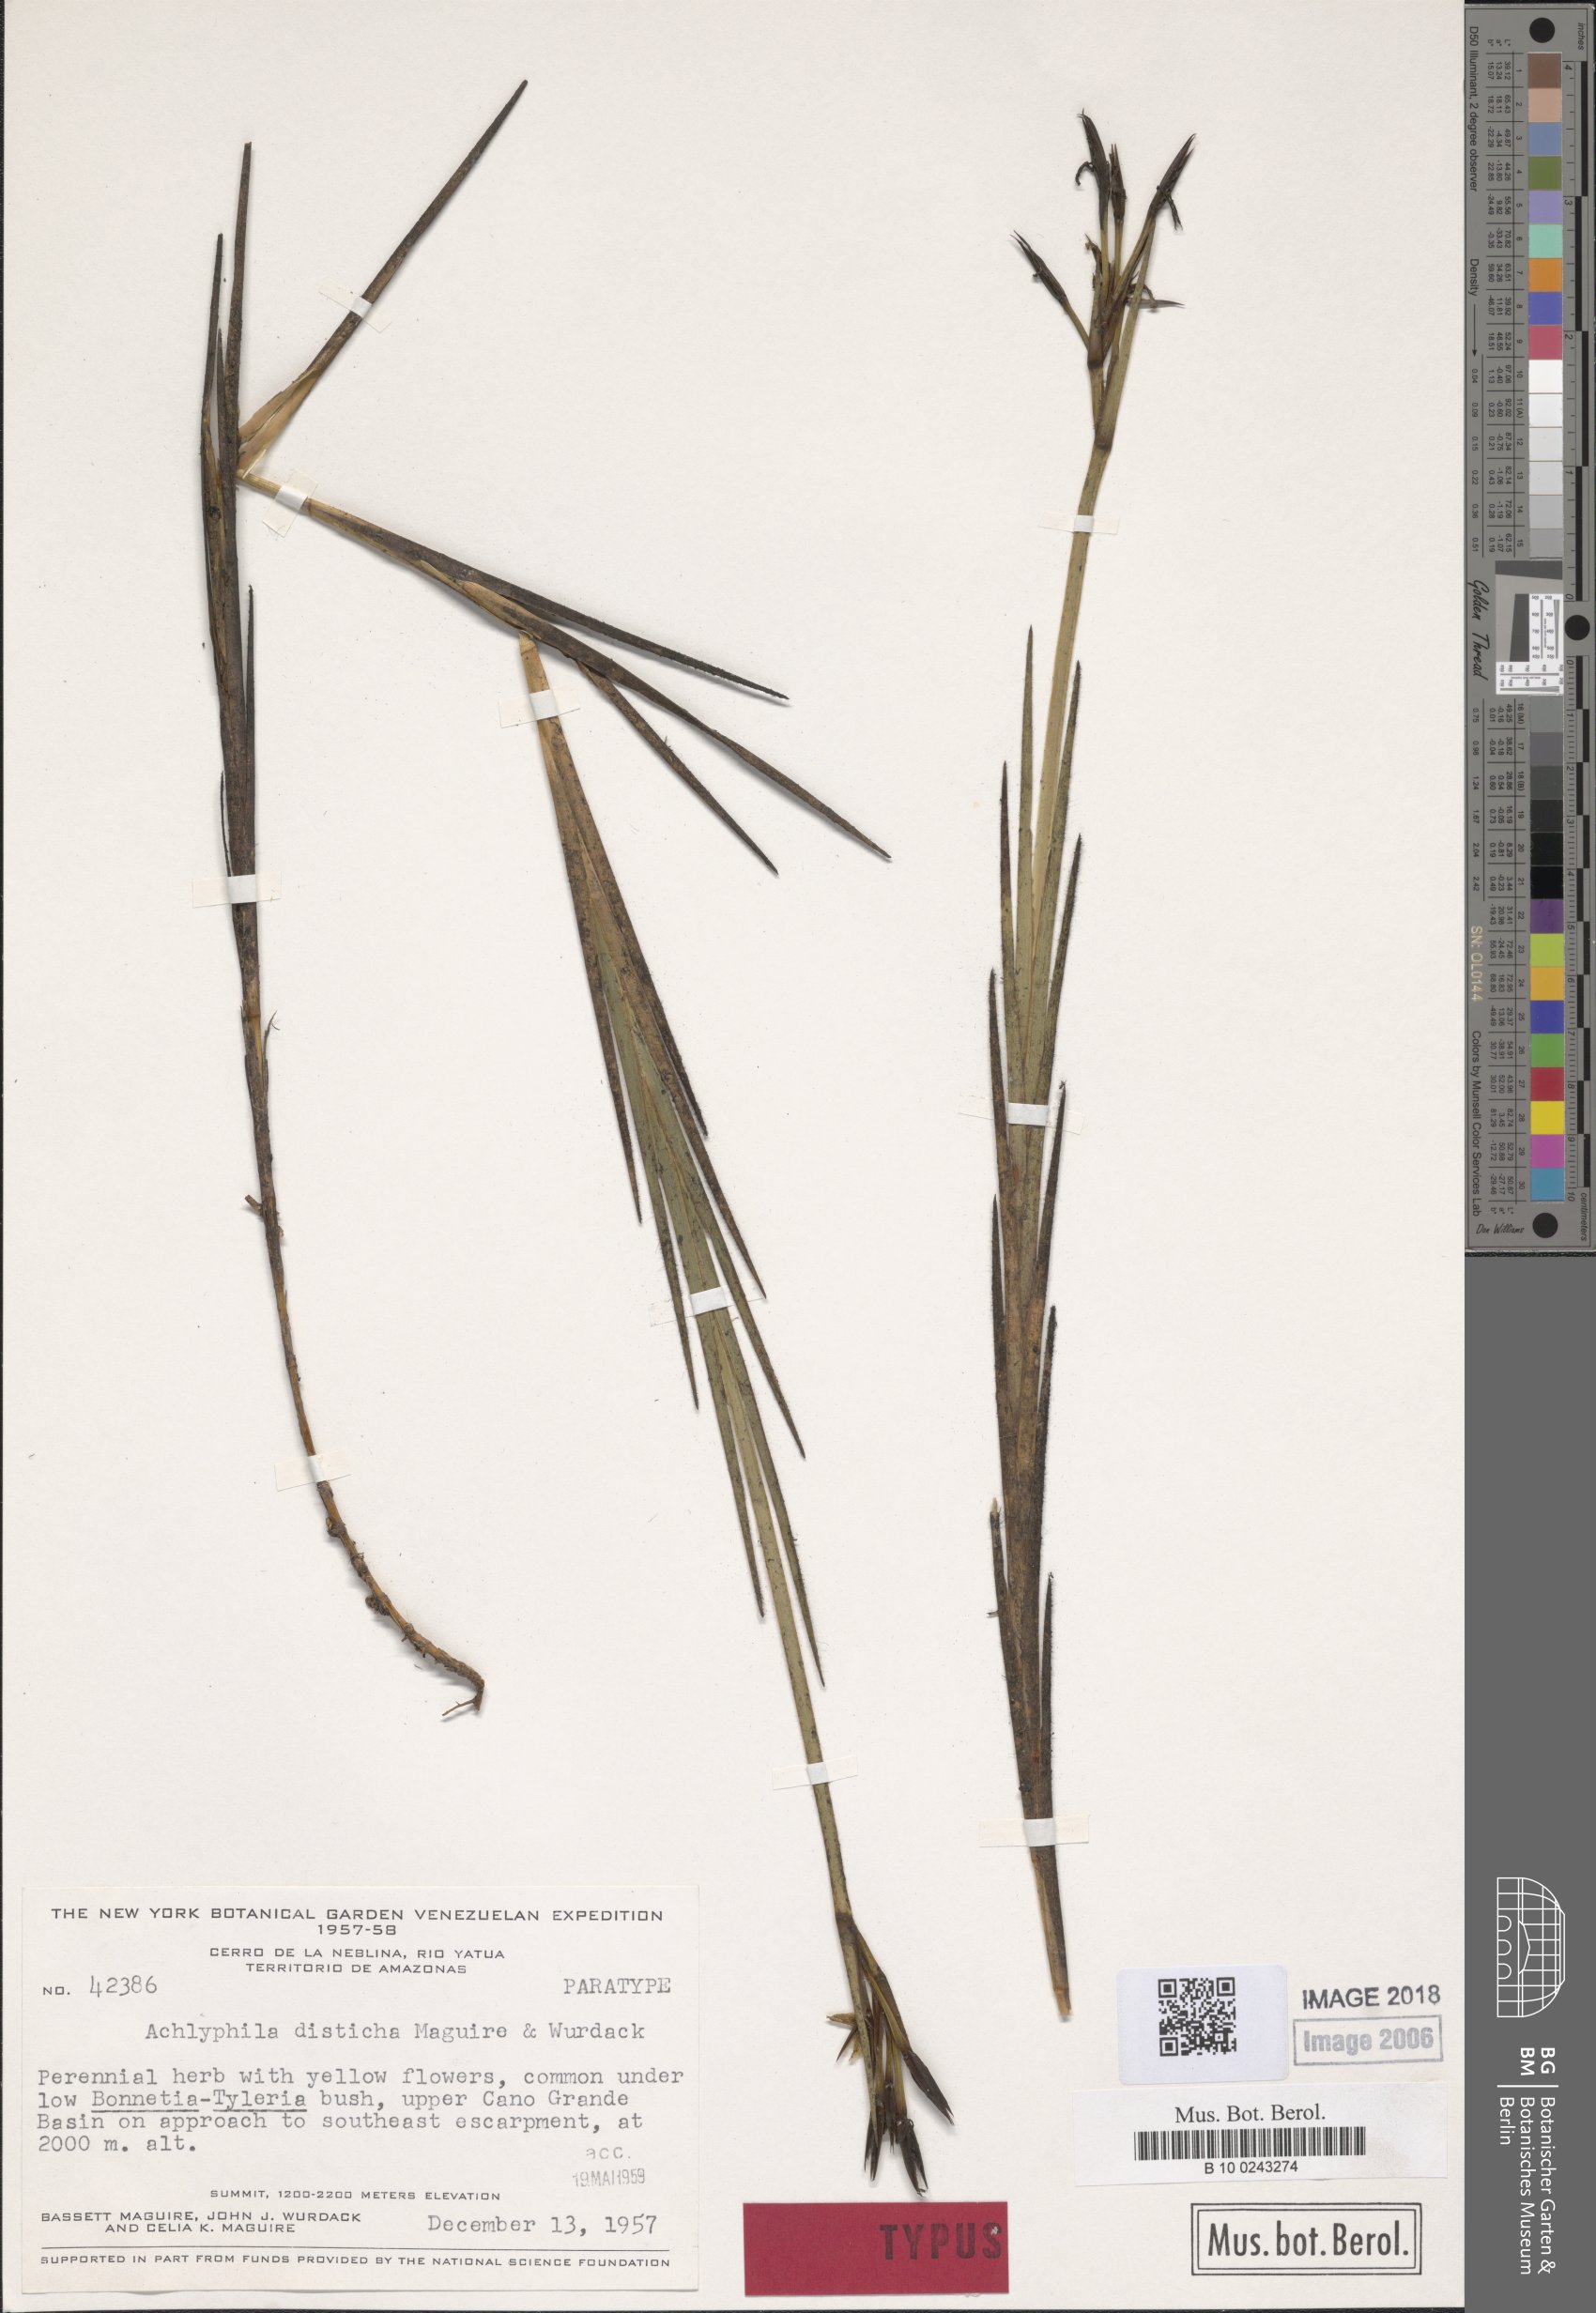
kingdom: Plantae
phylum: Tracheophyta
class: Liliopsida
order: Poales
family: Xyridaceae
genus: Achlyphila
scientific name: Achlyphila disticha
